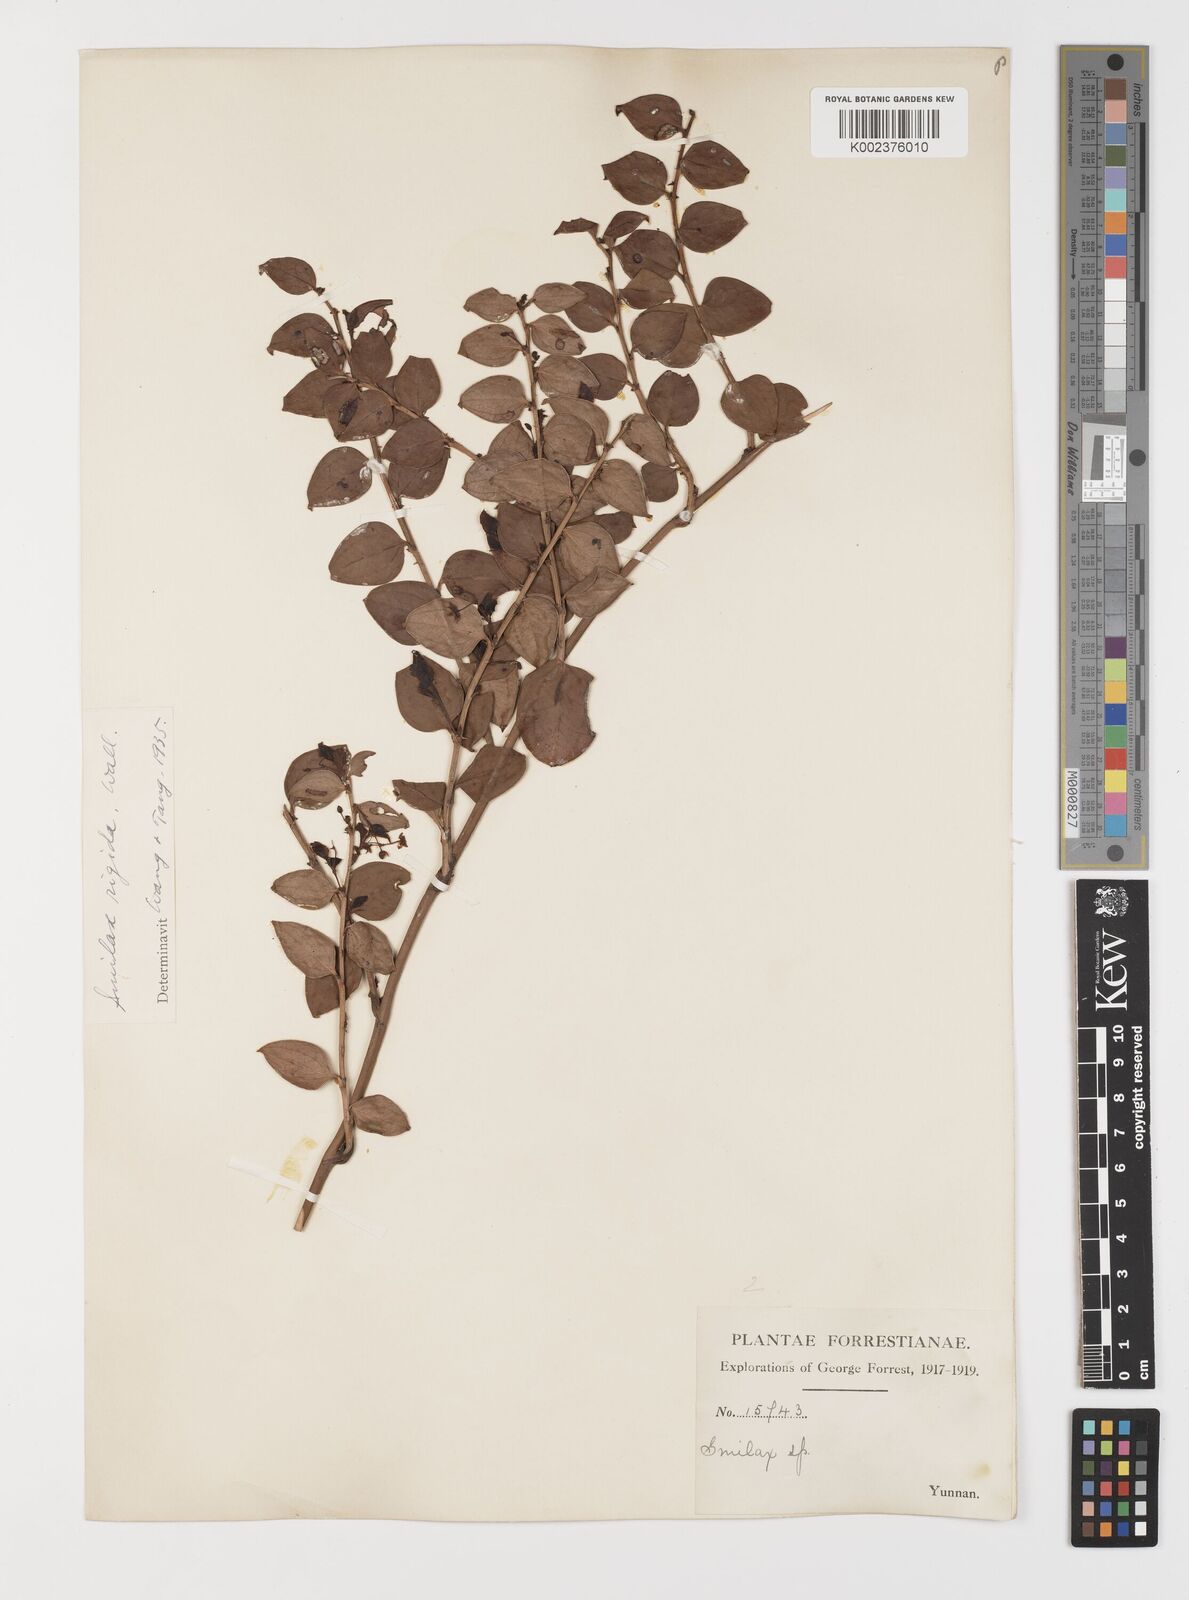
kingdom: Plantae
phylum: Tracheophyta
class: Liliopsida
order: Liliales
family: Smilacaceae
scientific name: Smilacaceae
